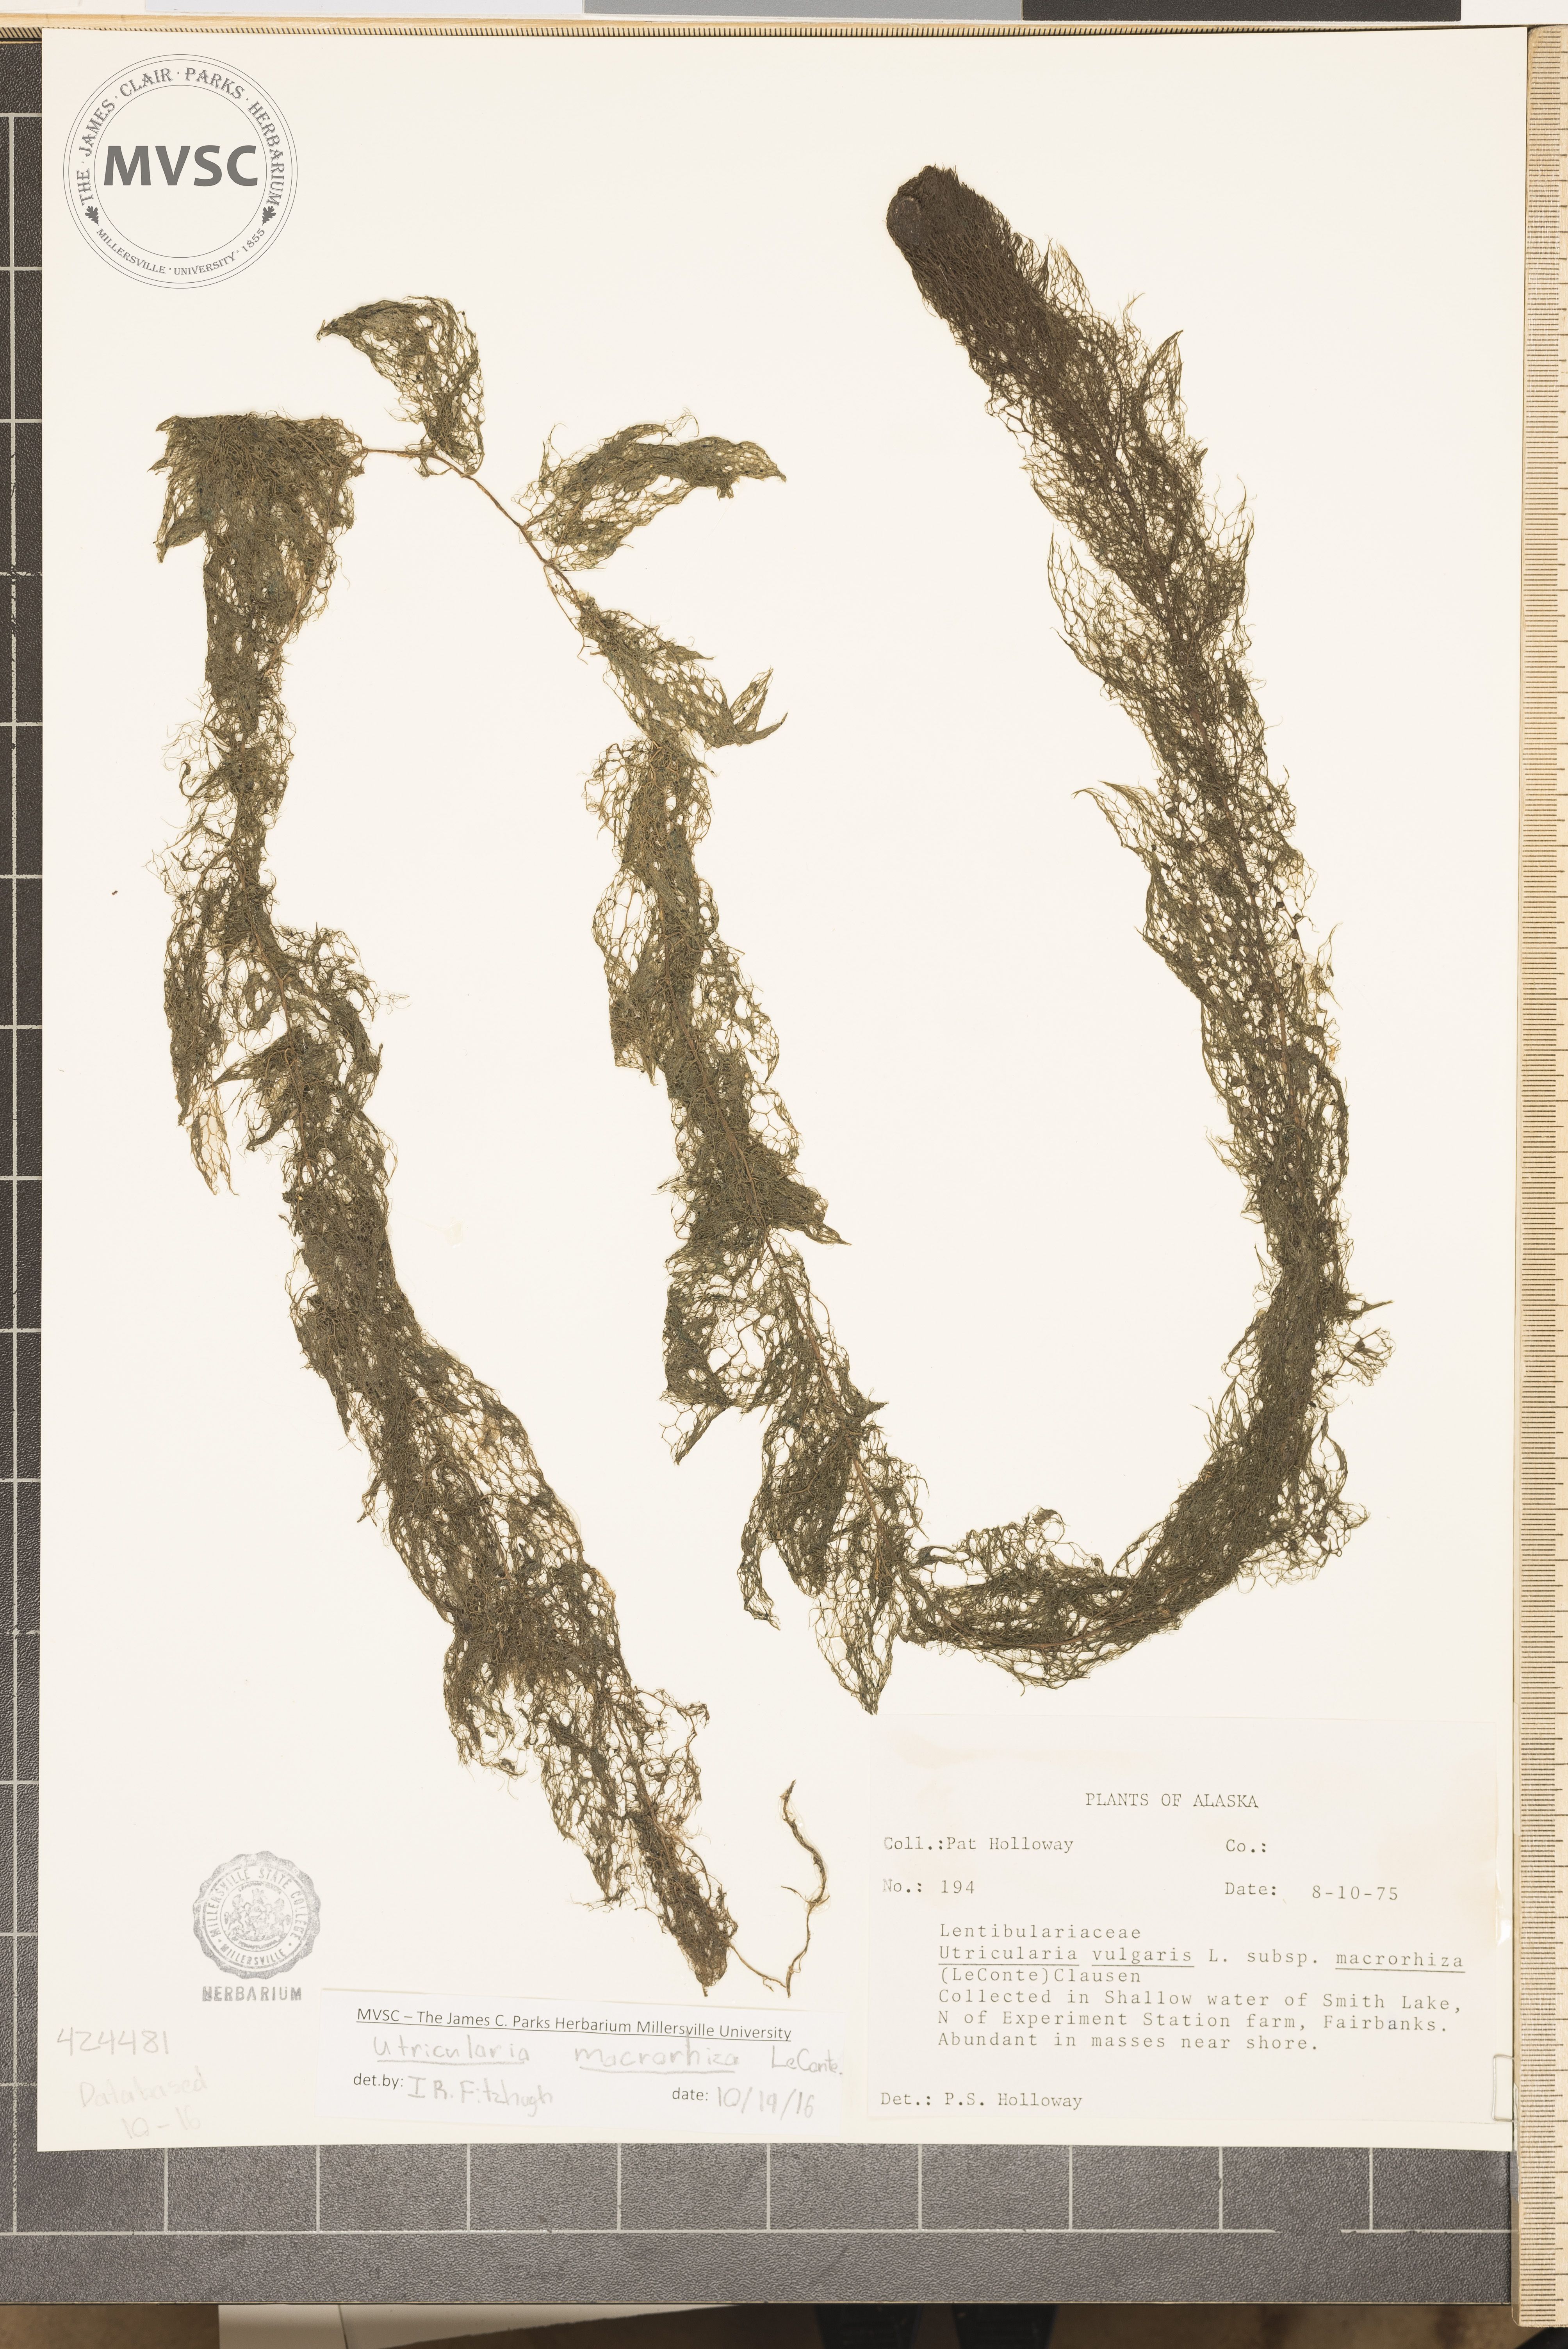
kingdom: Plantae
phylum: Tracheophyta
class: Magnoliopsida
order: Lamiales
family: Lentibulariaceae
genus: Utricularia
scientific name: Utricularia macrorhiza
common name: Common Bladderwort
